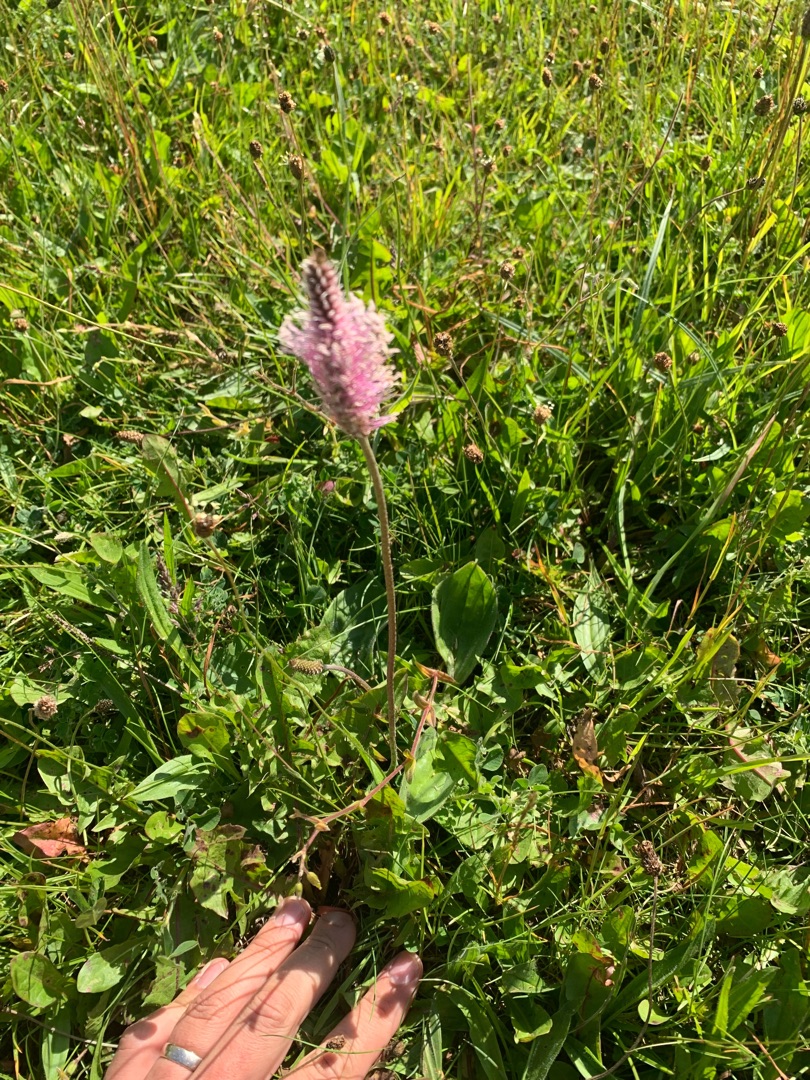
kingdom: Plantae
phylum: Tracheophyta
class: Magnoliopsida
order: Lamiales
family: Plantaginaceae
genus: Plantago
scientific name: Plantago media
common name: Dunet vejbred
